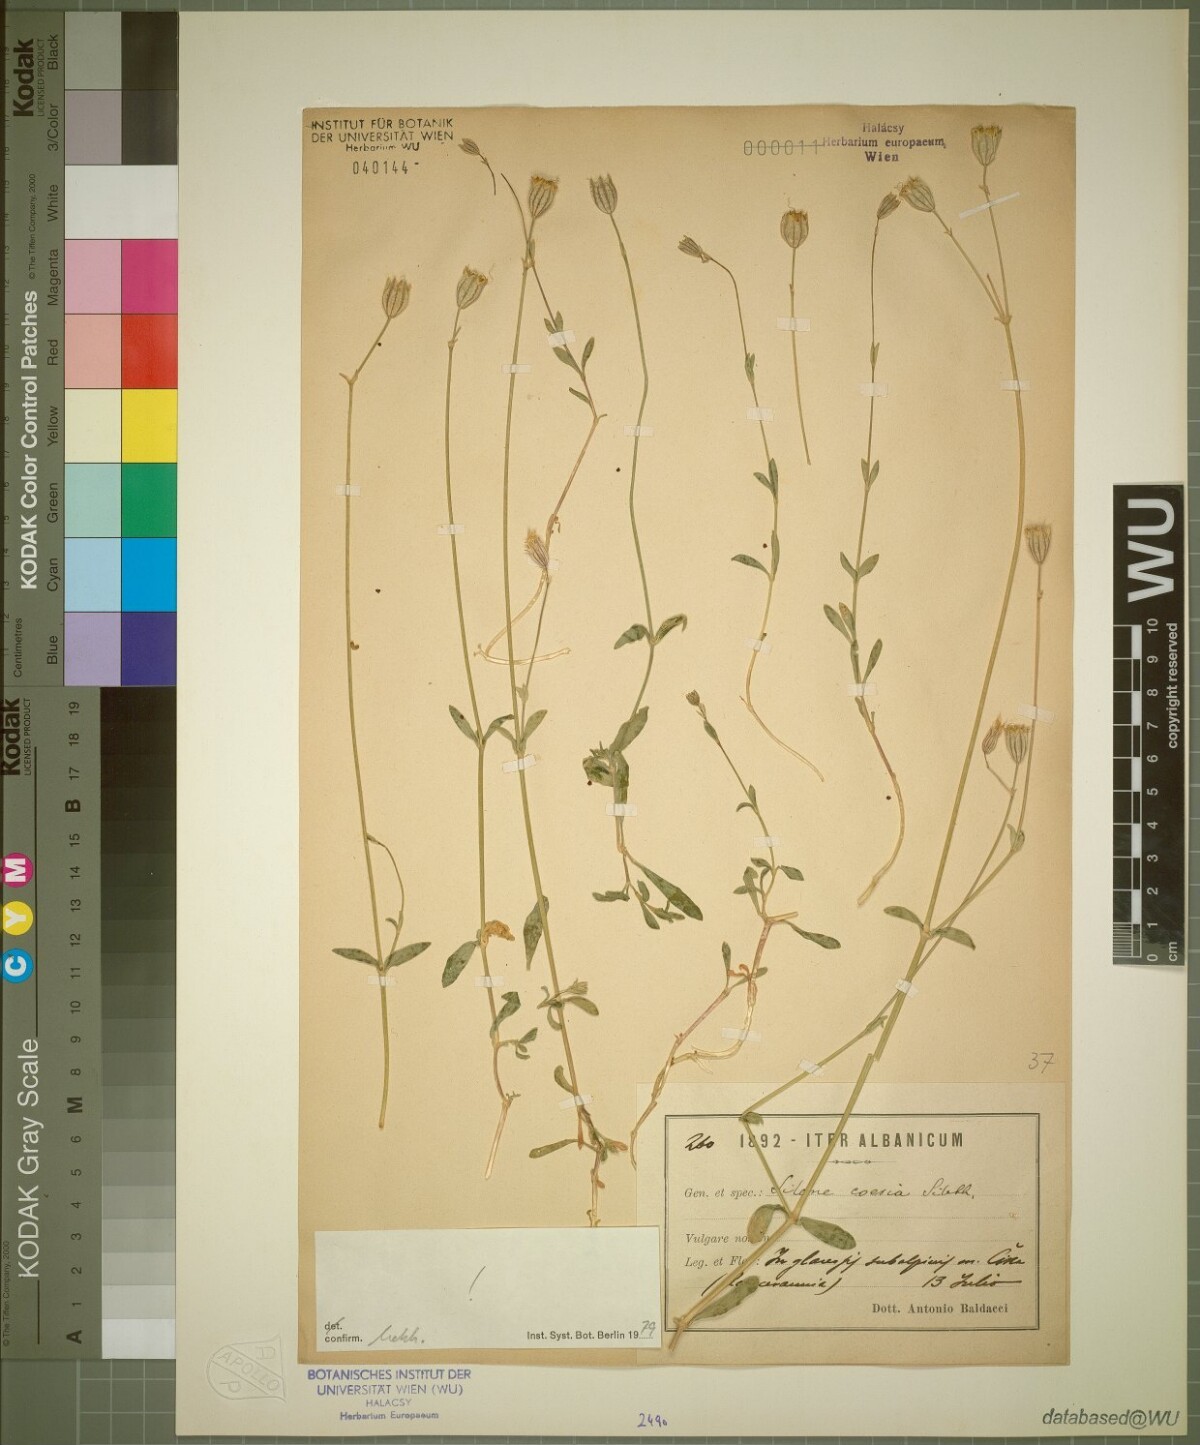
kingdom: Plantae
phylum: Tracheophyta
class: Magnoliopsida
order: Caryophyllales
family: Caryophyllaceae
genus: Silene
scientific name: Silene caesia
